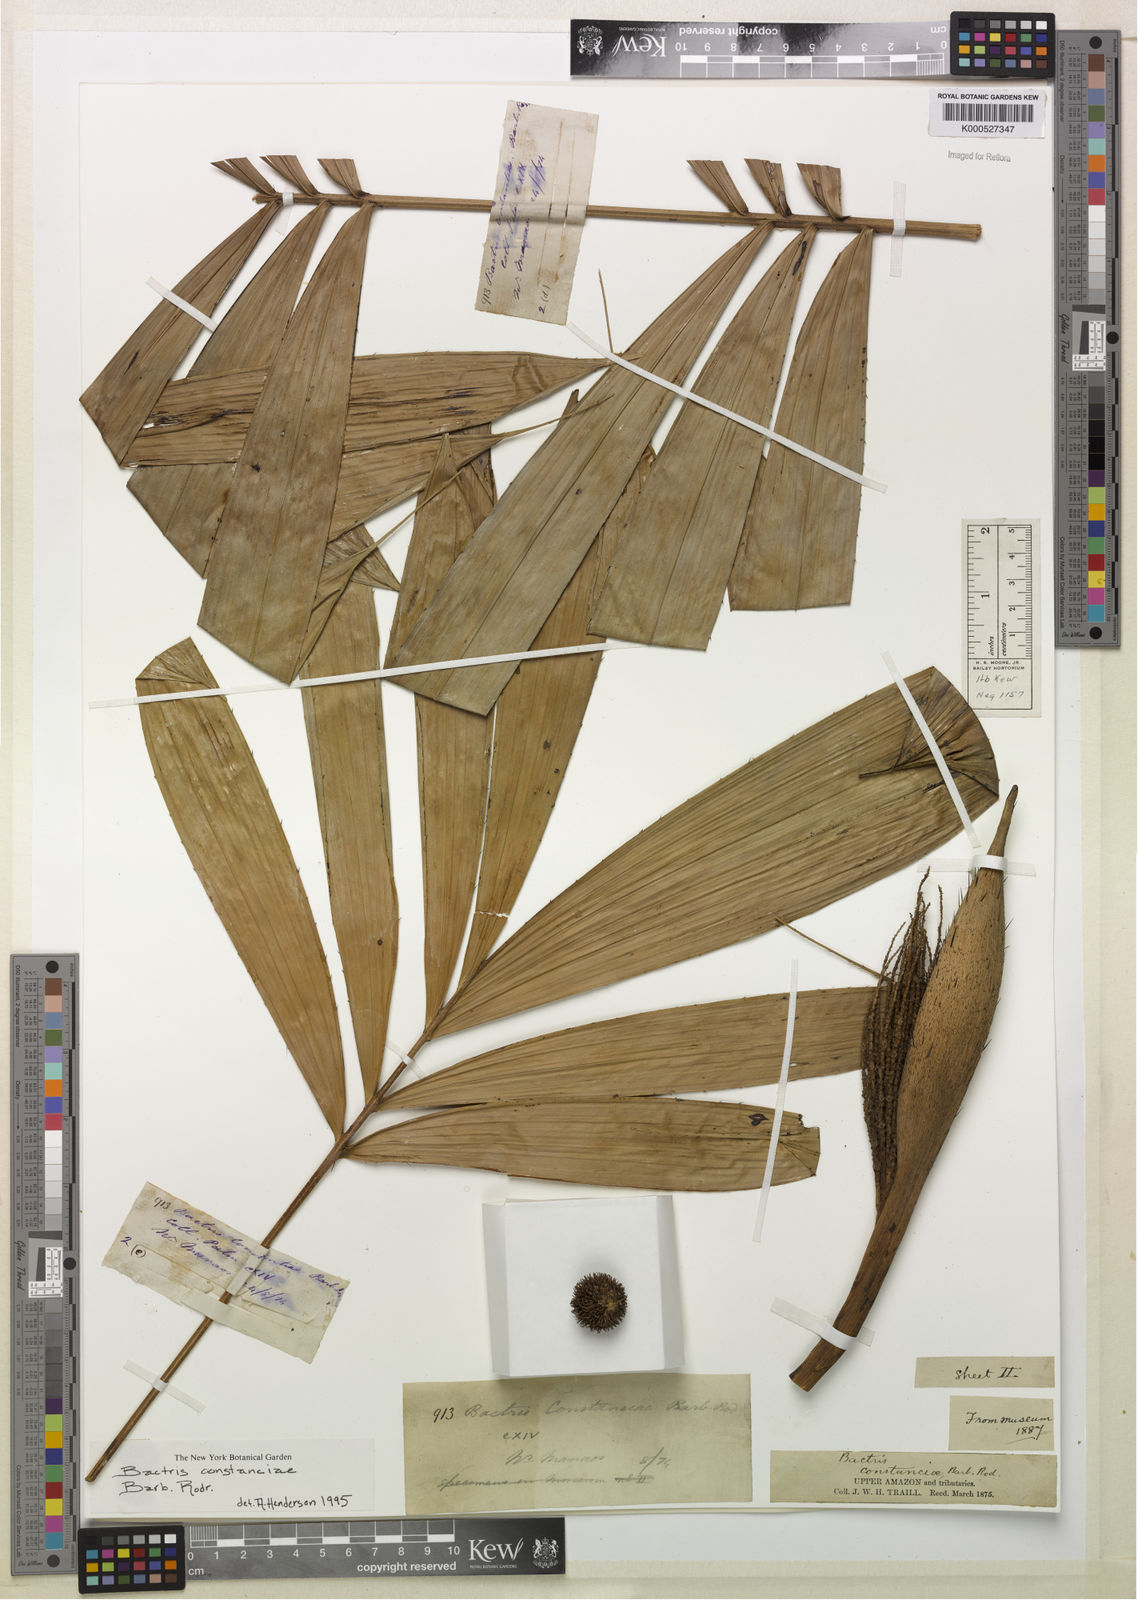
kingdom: Plantae
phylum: Tracheophyta
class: Liliopsida
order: Arecales
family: Arecaceae
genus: Bactris
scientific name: Bactris constanciae
